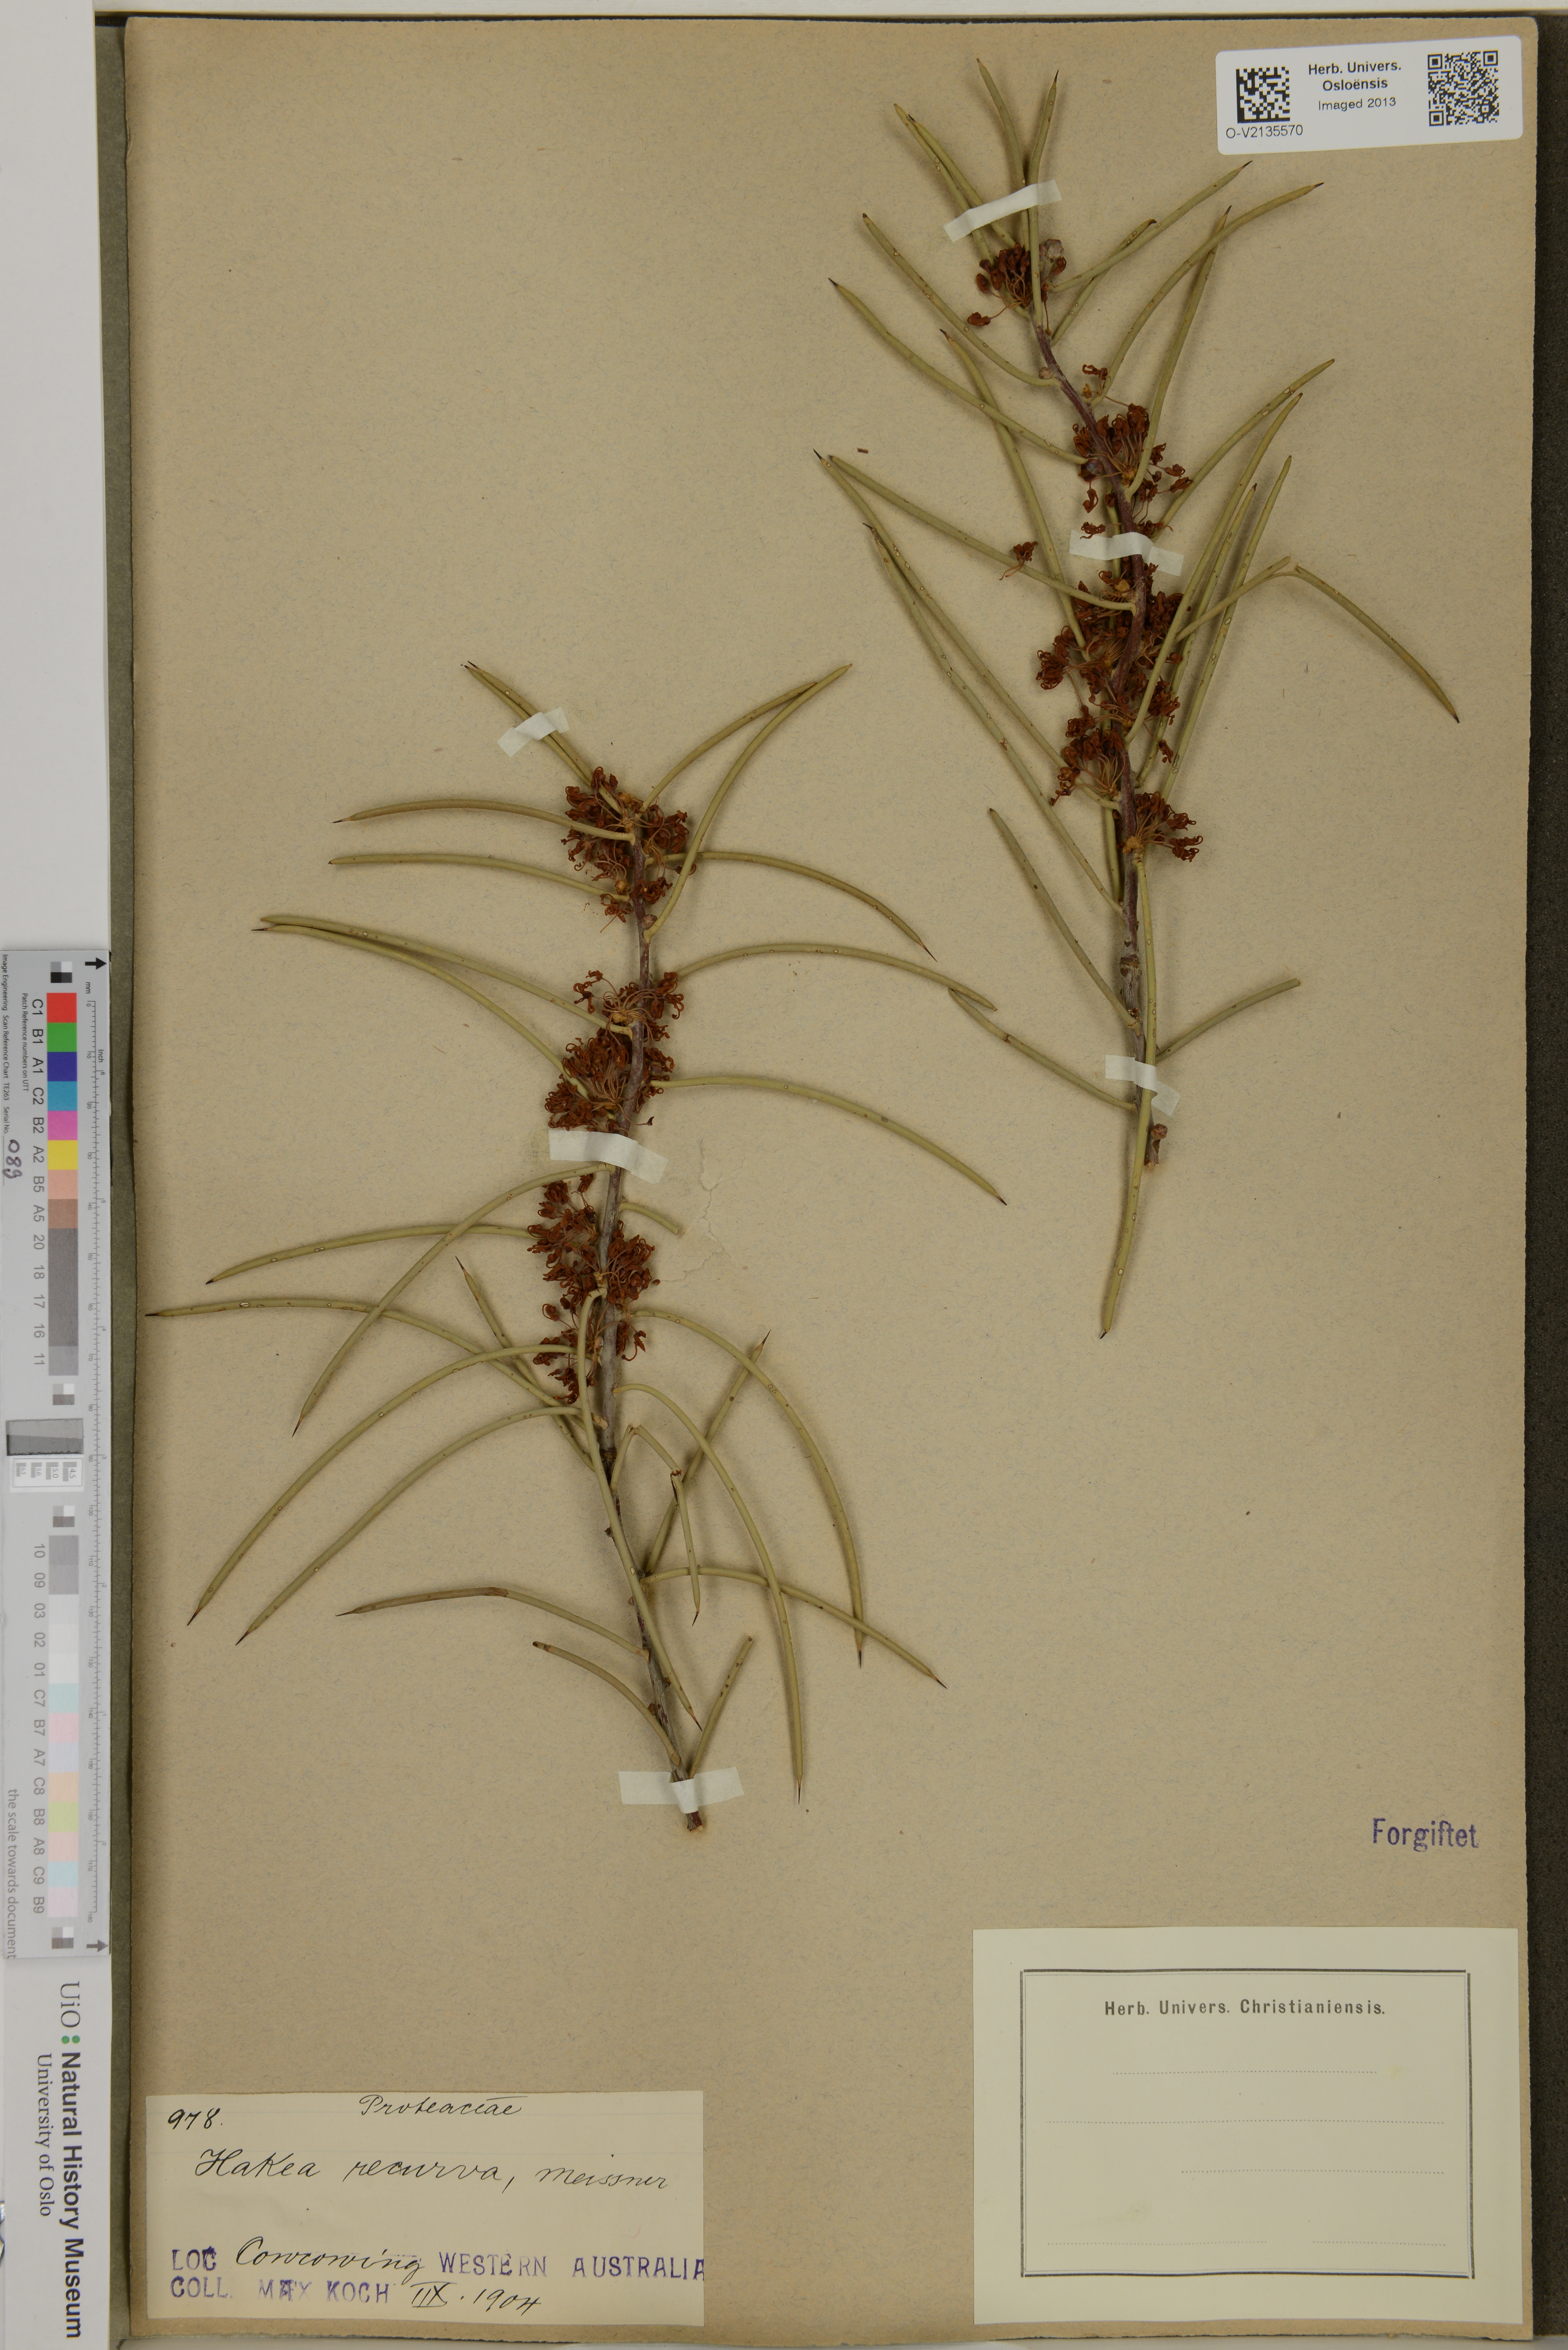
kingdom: Plantae
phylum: Tracheophyta
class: Magnoliopsida
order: Proteales
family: Proteaceae
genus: Hakea
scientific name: Hakea recurva
